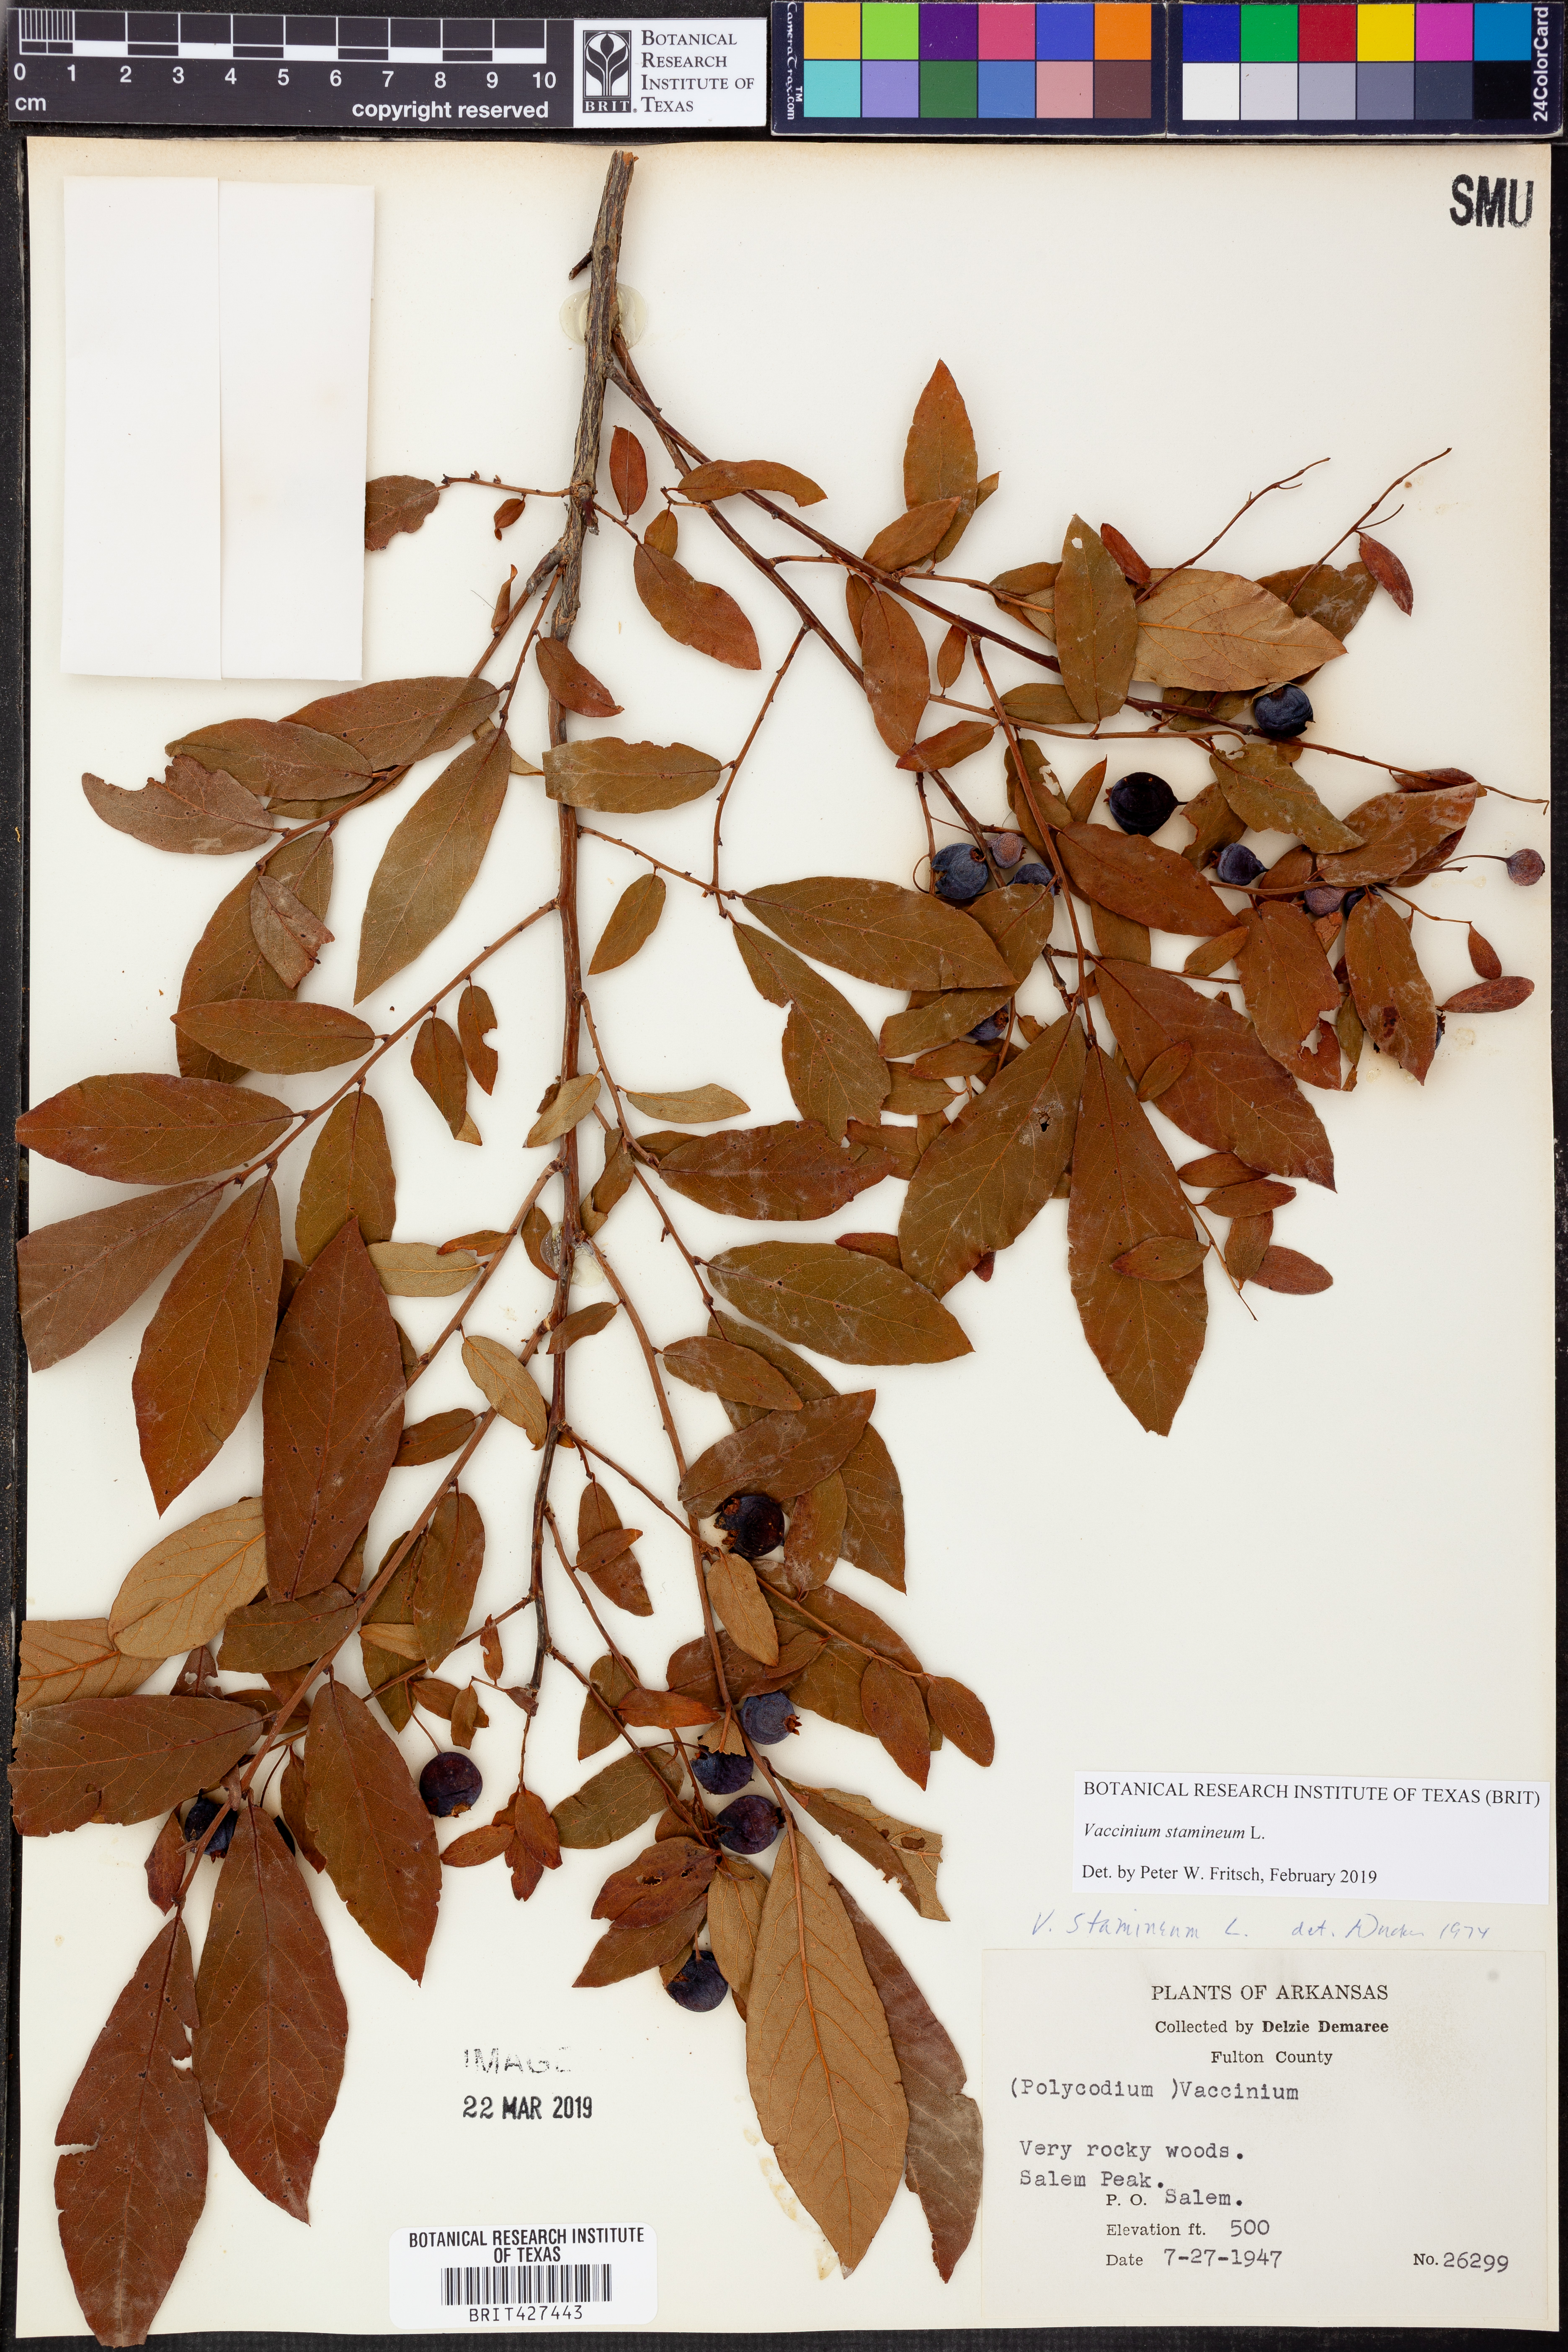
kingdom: Plantae
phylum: Tracheophyta
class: Magnoliopsida
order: Ericales
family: Ericaceae
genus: Vaccinium
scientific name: Vaccinium stamineum
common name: Deerberry
